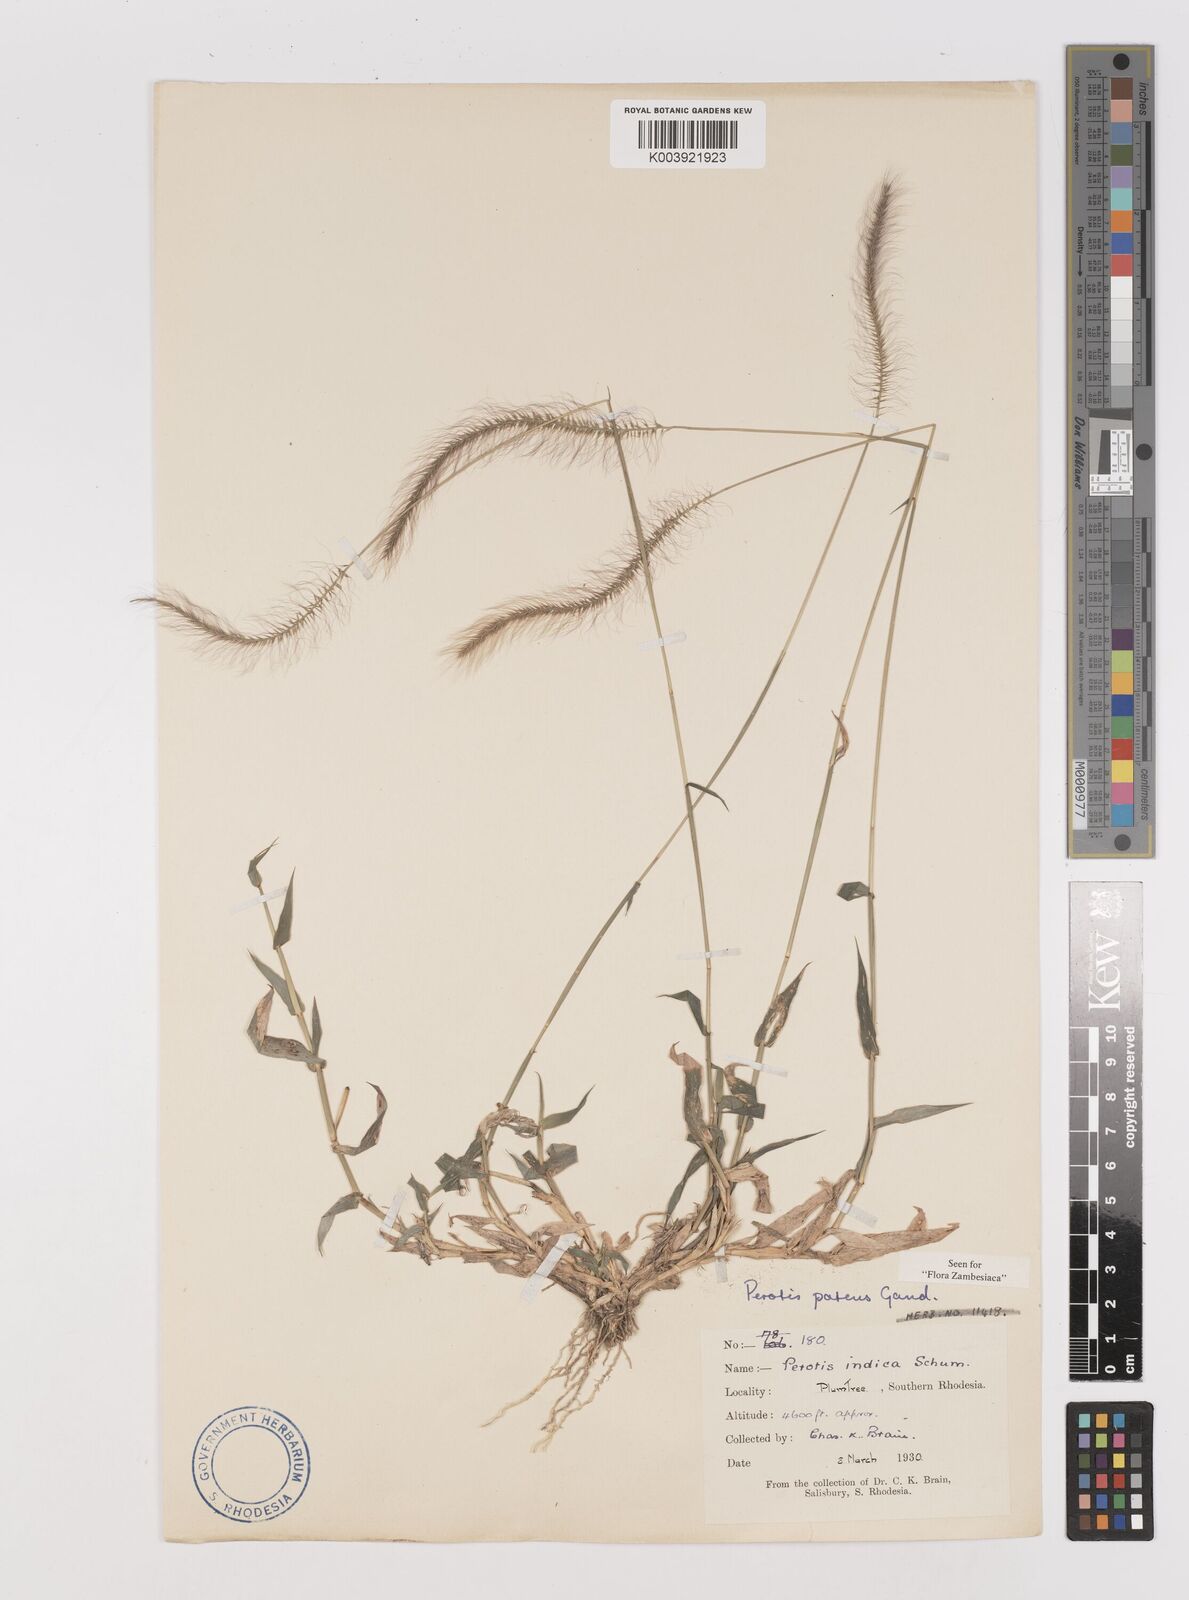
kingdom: Plantae
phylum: Tracheophyta
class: Liliopsida
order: Poales
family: Poaceae
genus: Perotis
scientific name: Perotis patens
